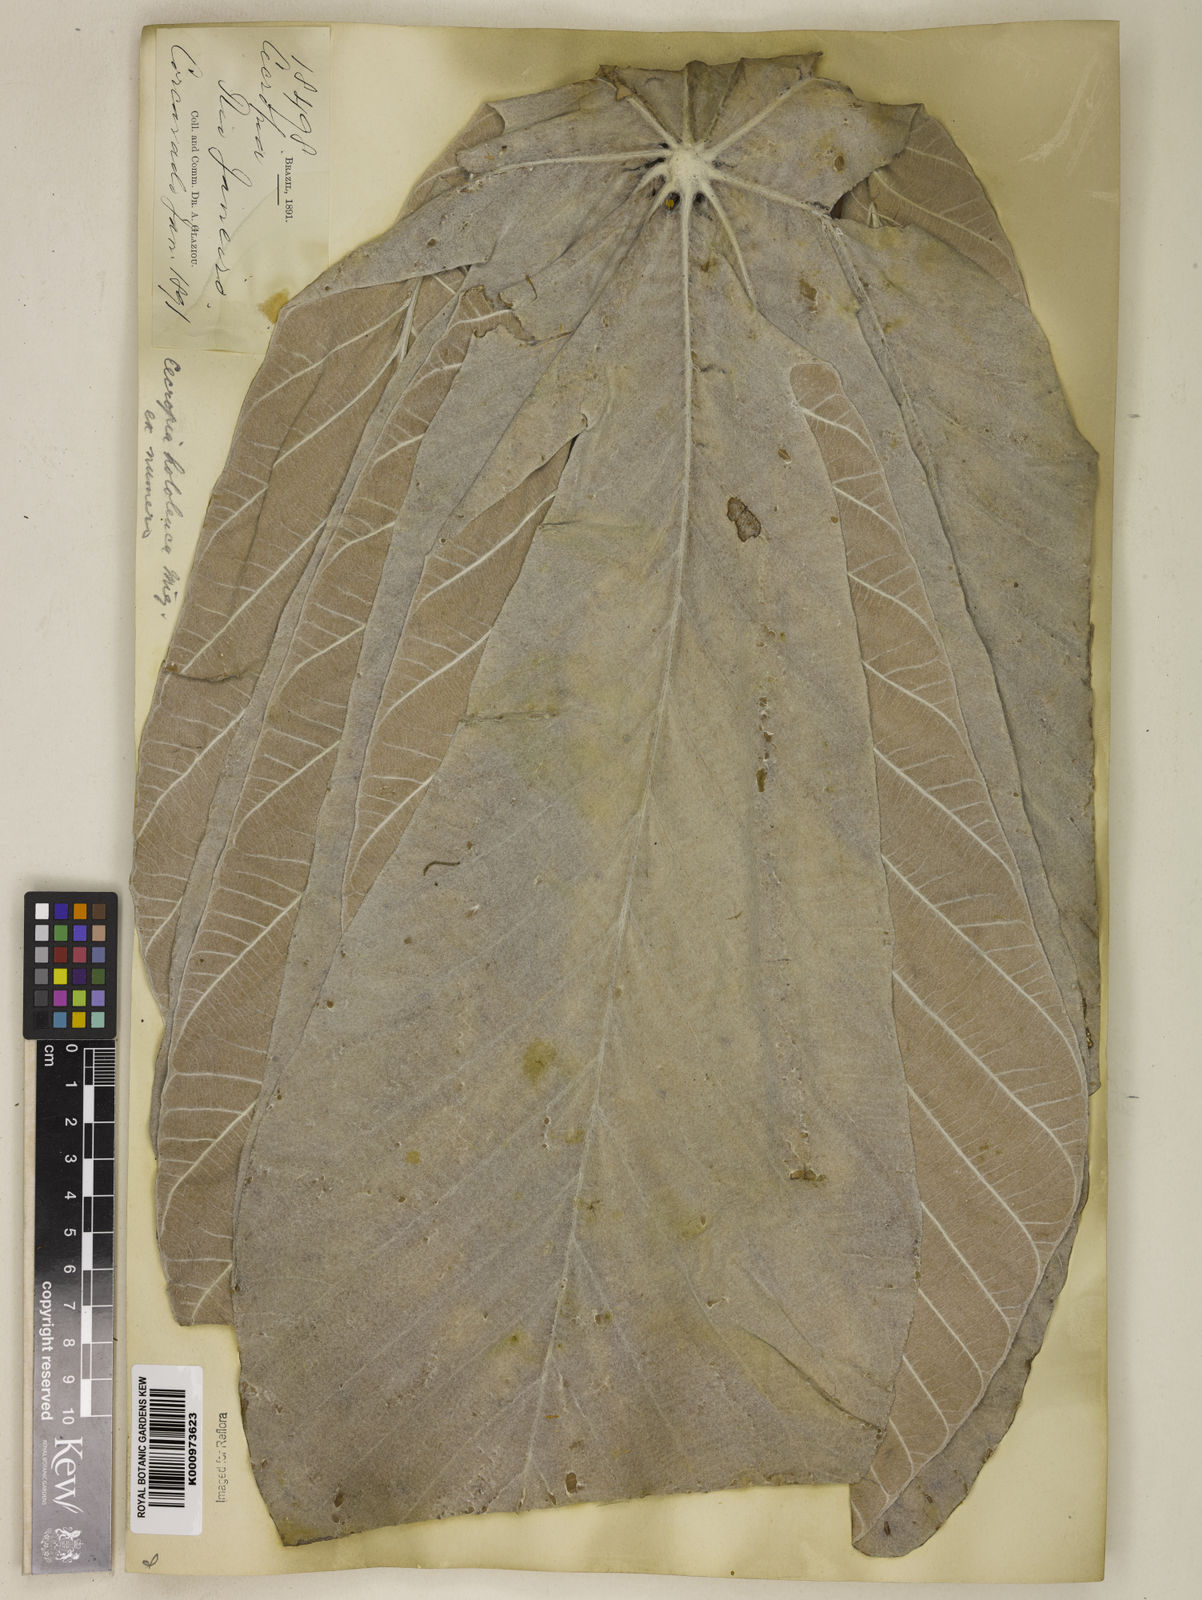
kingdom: Plantae
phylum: Tracheophyta
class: Magnoliopsida
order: Rosales
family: Urticaceae
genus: Cecropia
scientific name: Cecropia hololeuca
